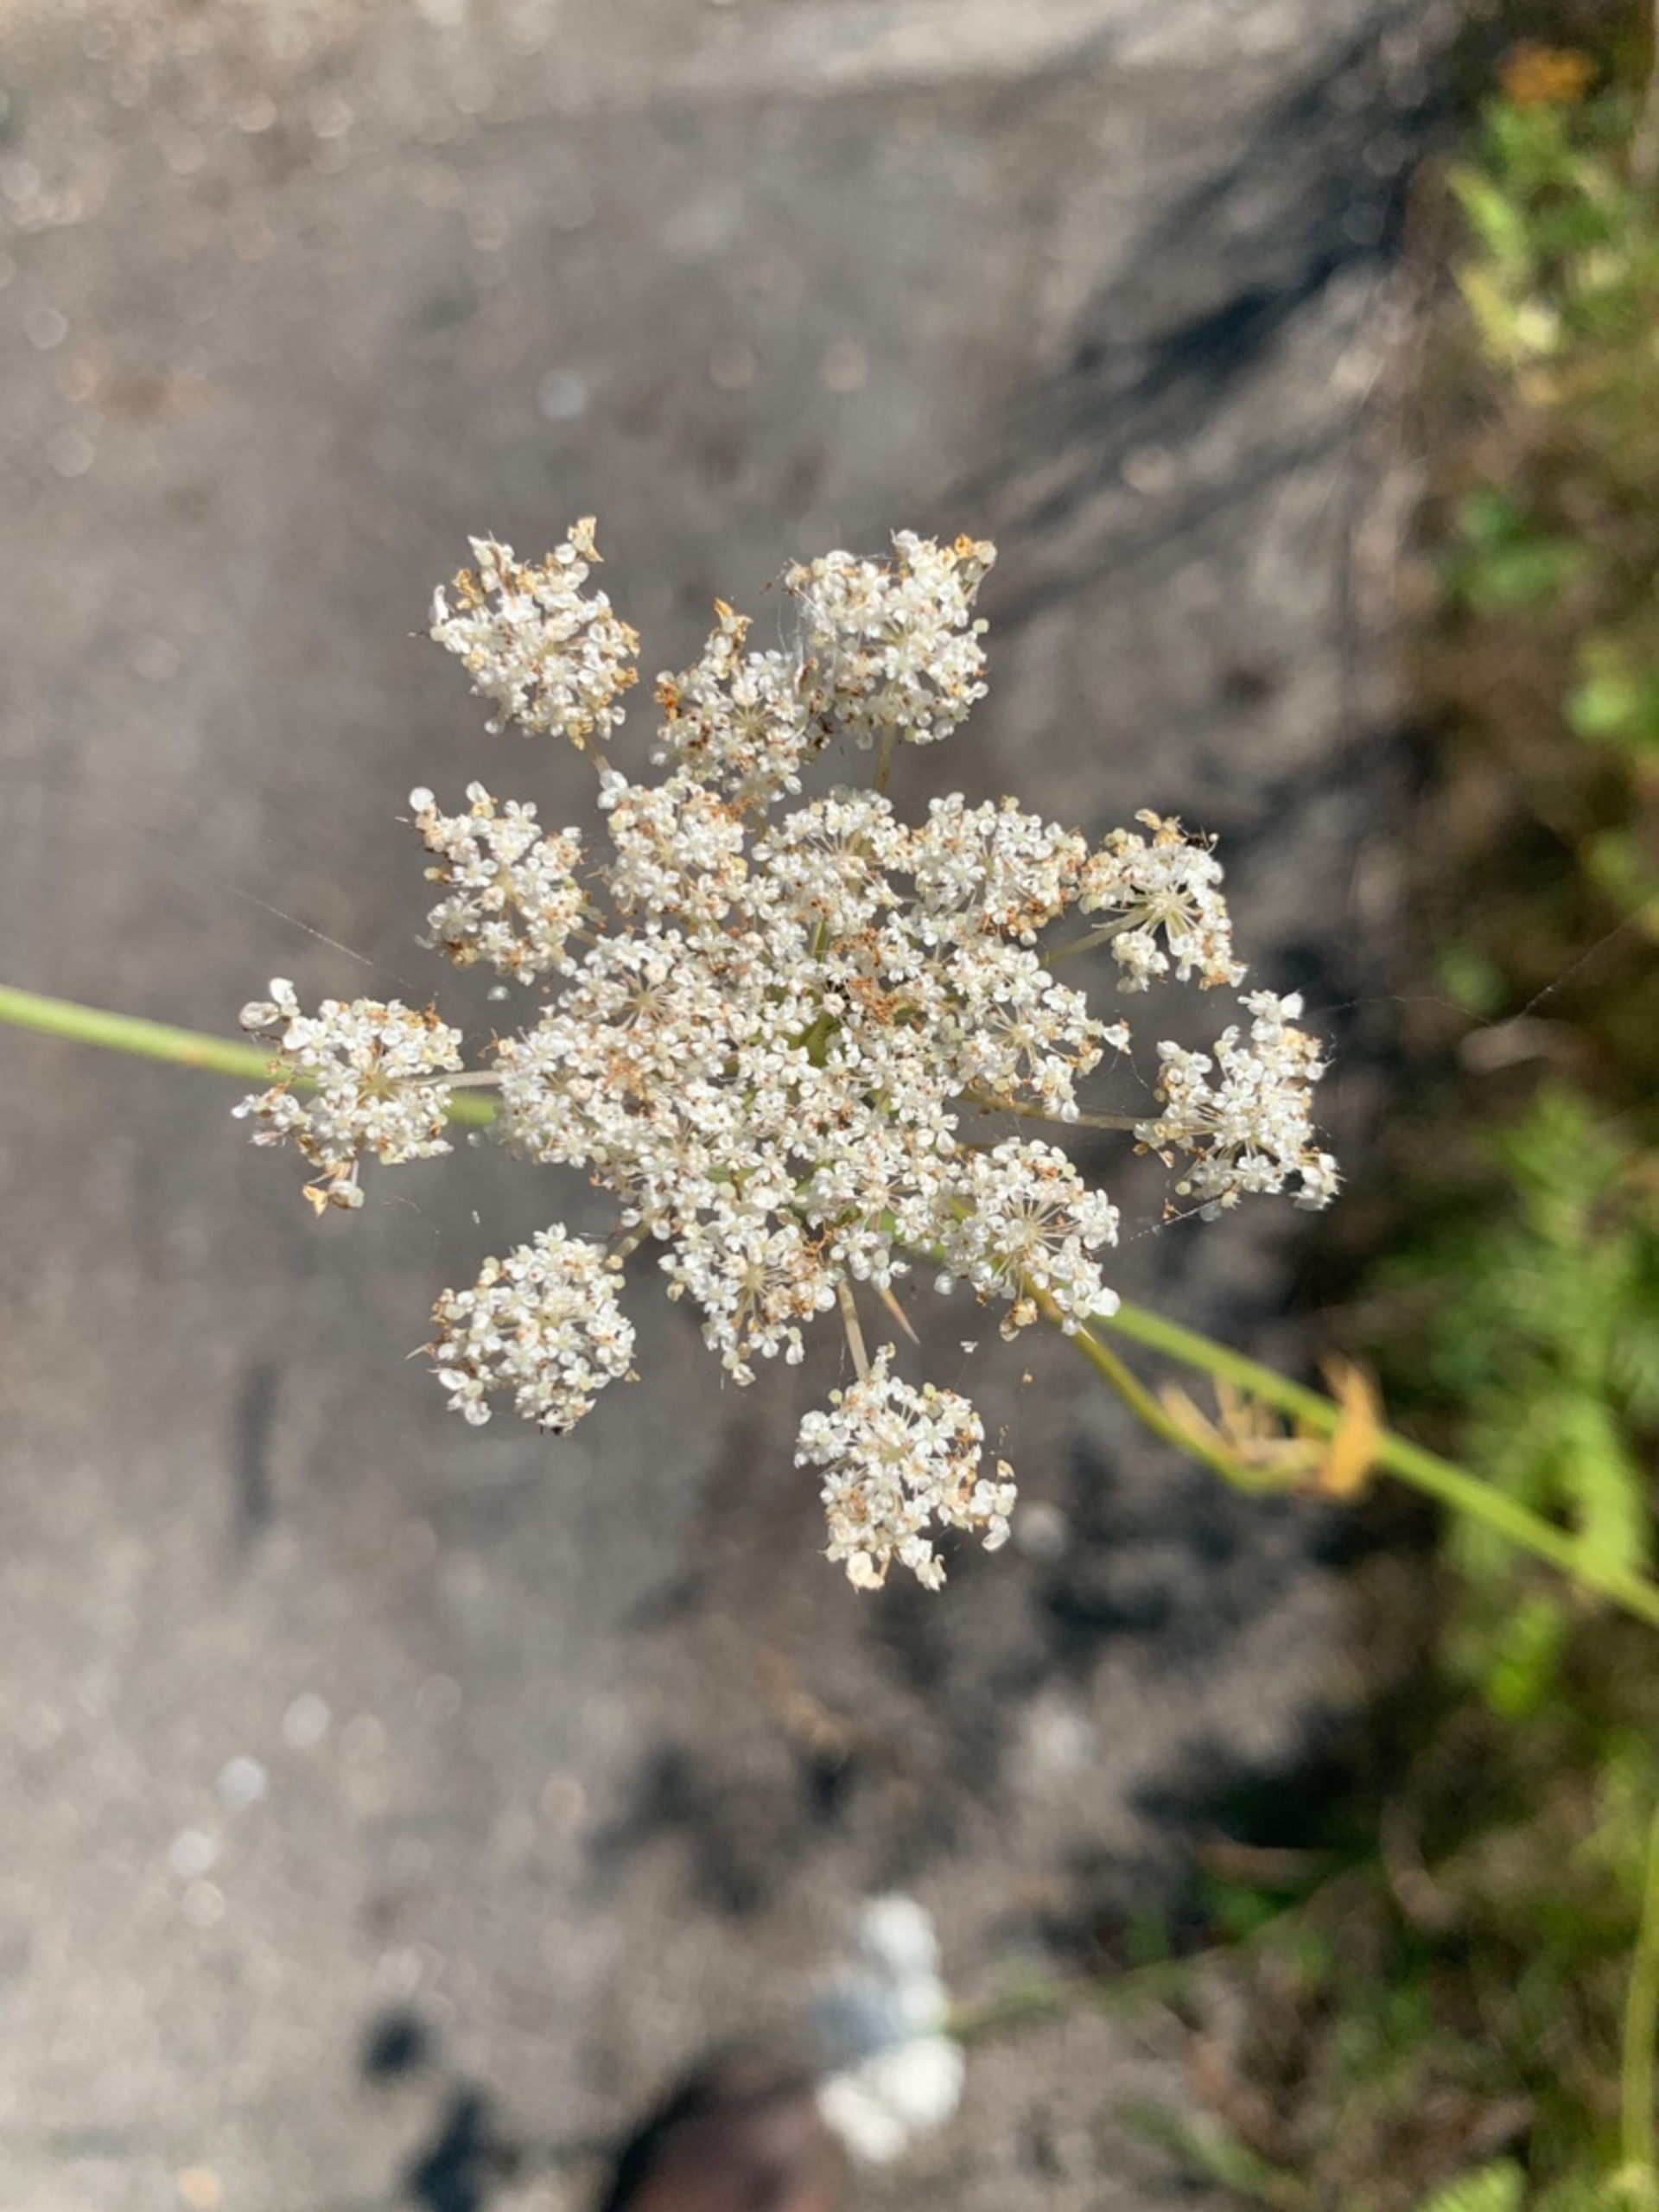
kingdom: Plantae
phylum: Tracheophyta
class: Magnoliopsida
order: Apiales
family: Apiaceae
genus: Daucus
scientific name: Daucus carota
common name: Vild gulerod
